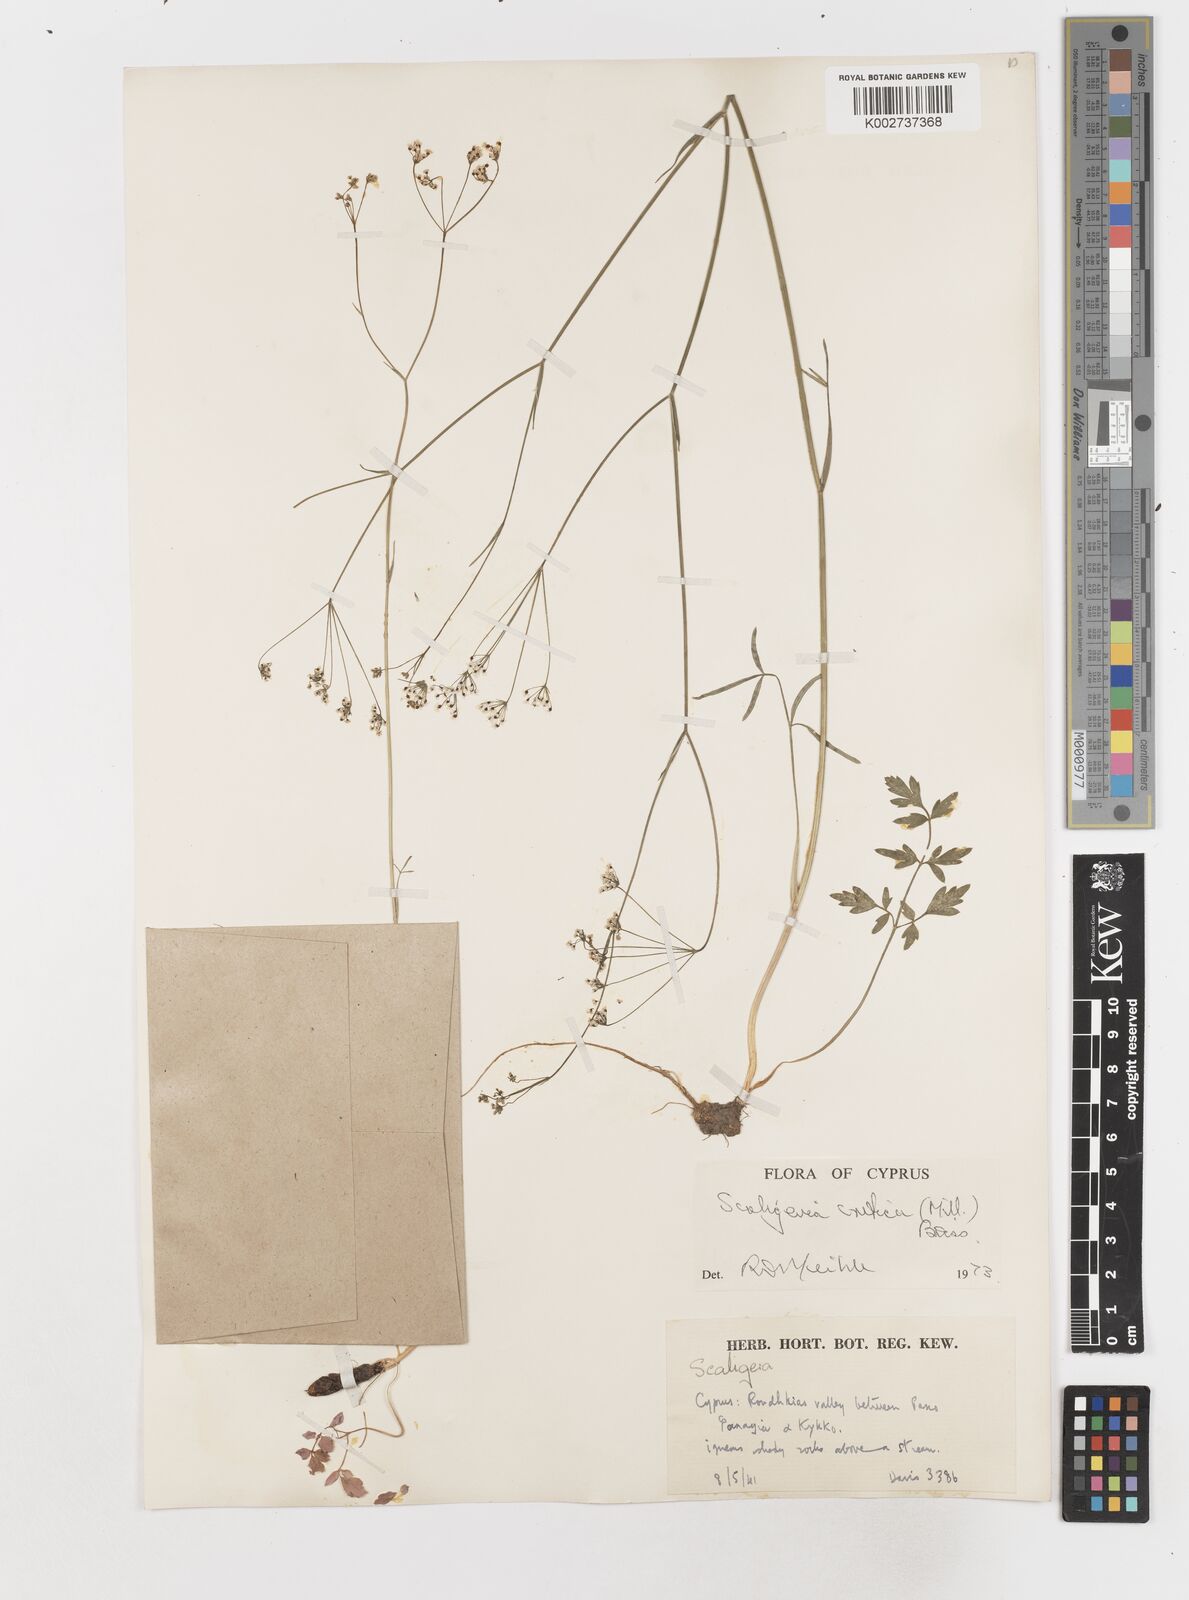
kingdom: Plantae
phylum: Tracheophyta
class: Magnoliopsida
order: Apiales
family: Apiaceae
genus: Scaligeria
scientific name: Scaligeria
